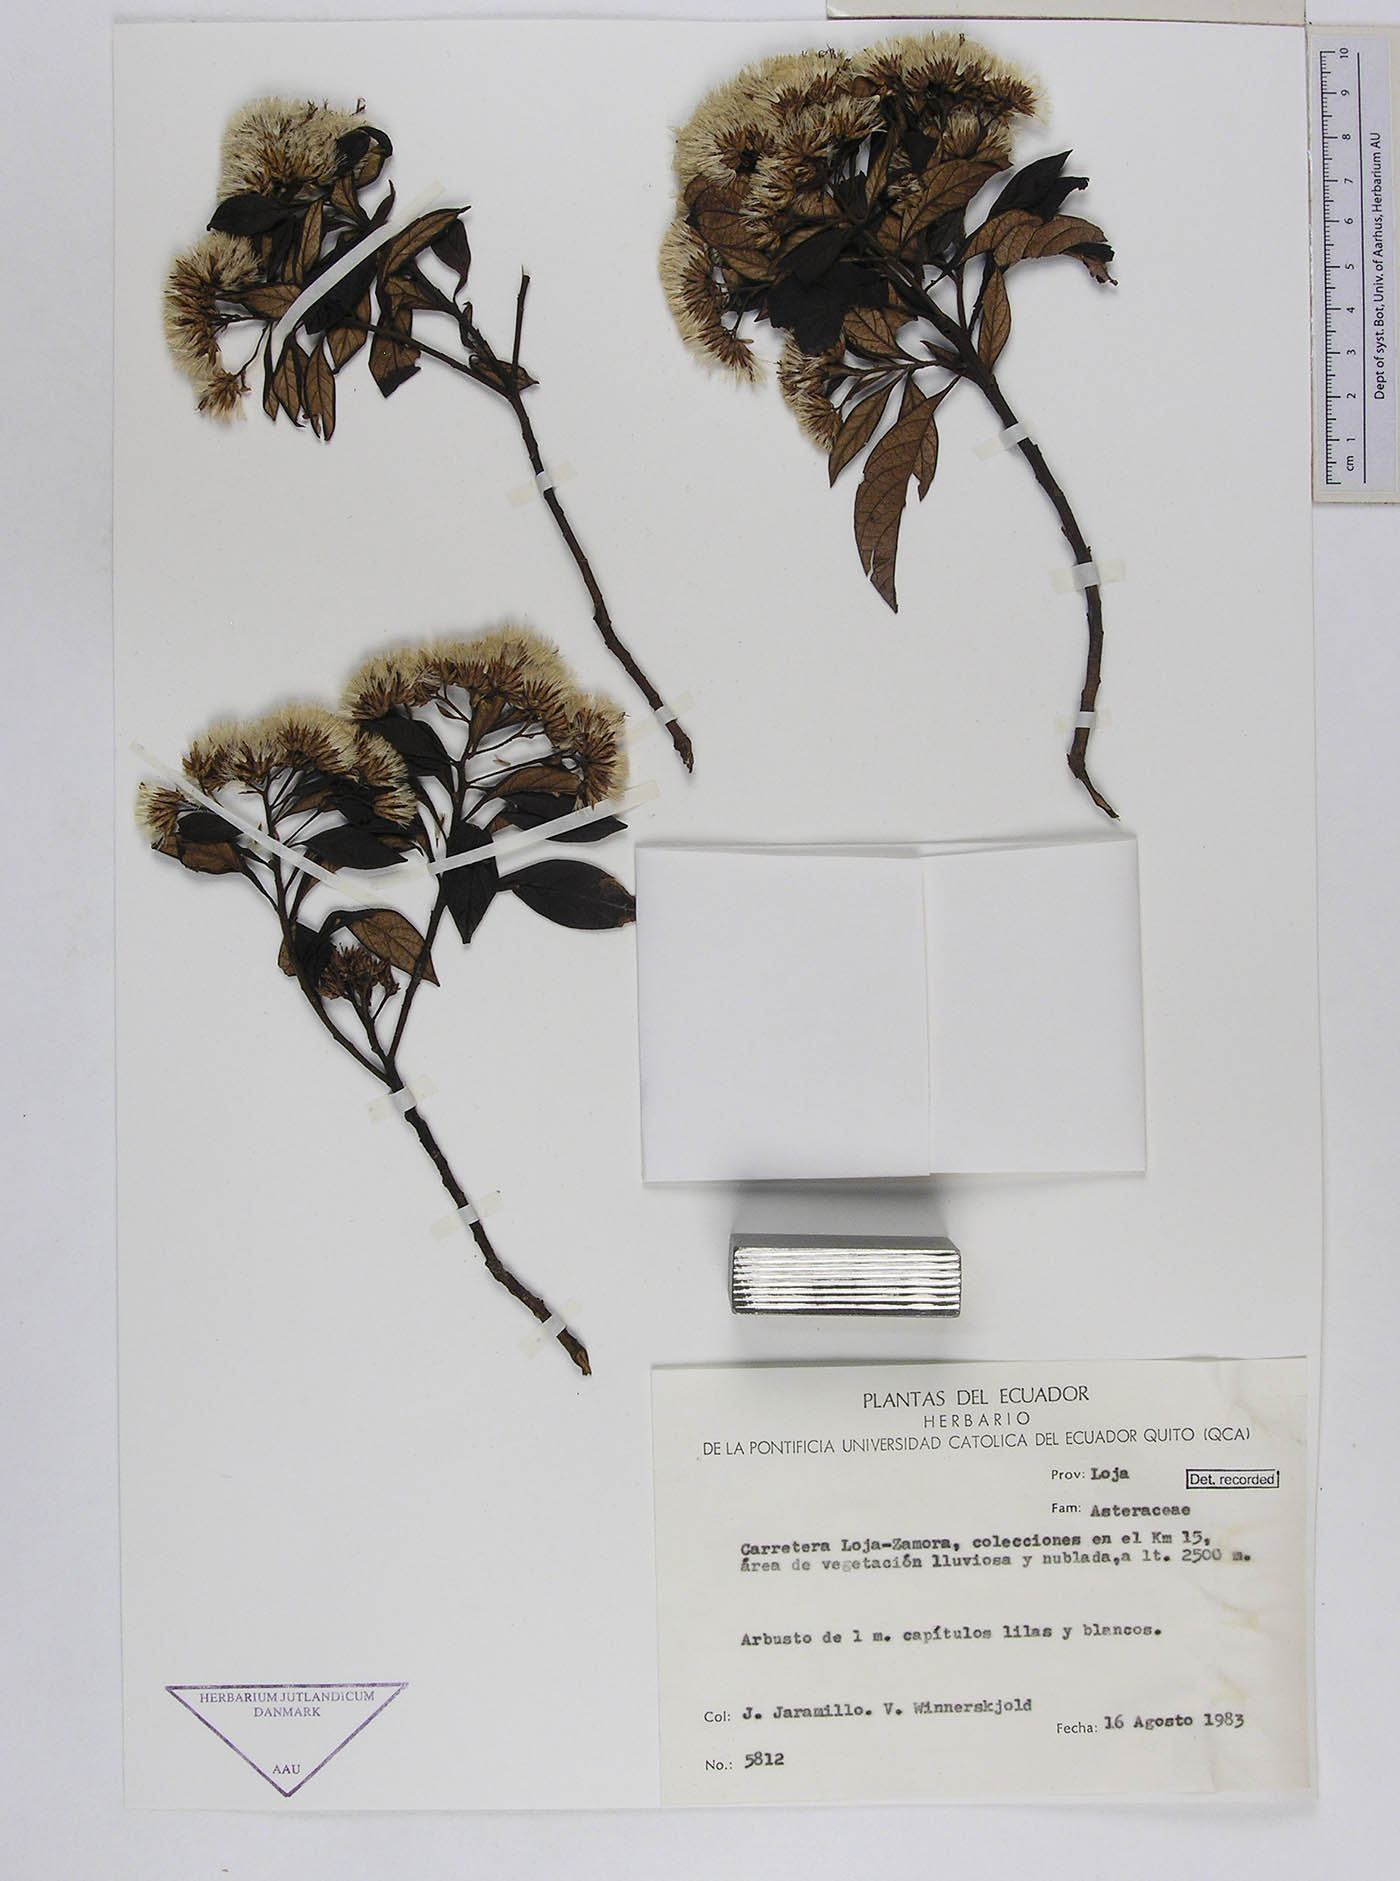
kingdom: Plantae
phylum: Tracheophyta
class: Magnoliopsida
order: Asterales
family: Asteraceae
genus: Cuatrecasanthus
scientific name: Cuatrecasanthus flexipappus
